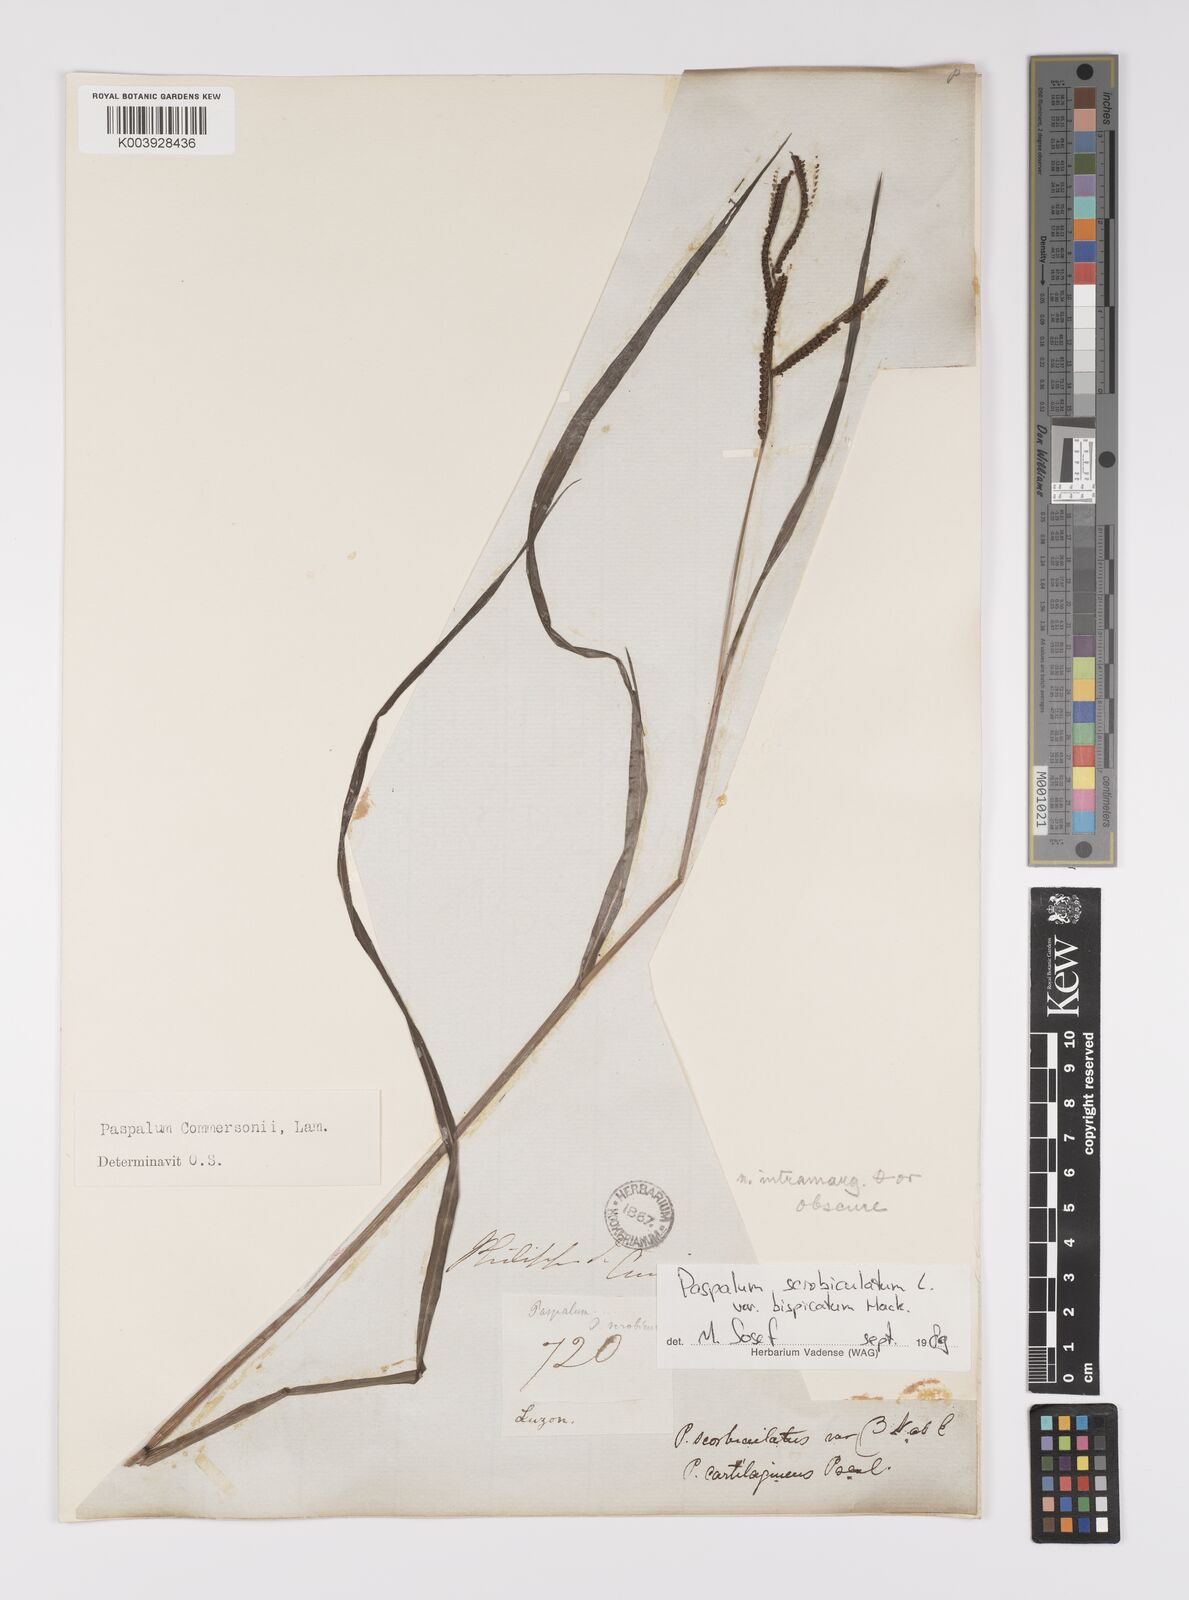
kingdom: Plantae
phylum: Tracheophyta
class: Liliopsida
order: Poales
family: Poaceae
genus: Paspalum
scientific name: Paspalum scrobiculatum
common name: Kodo millet
